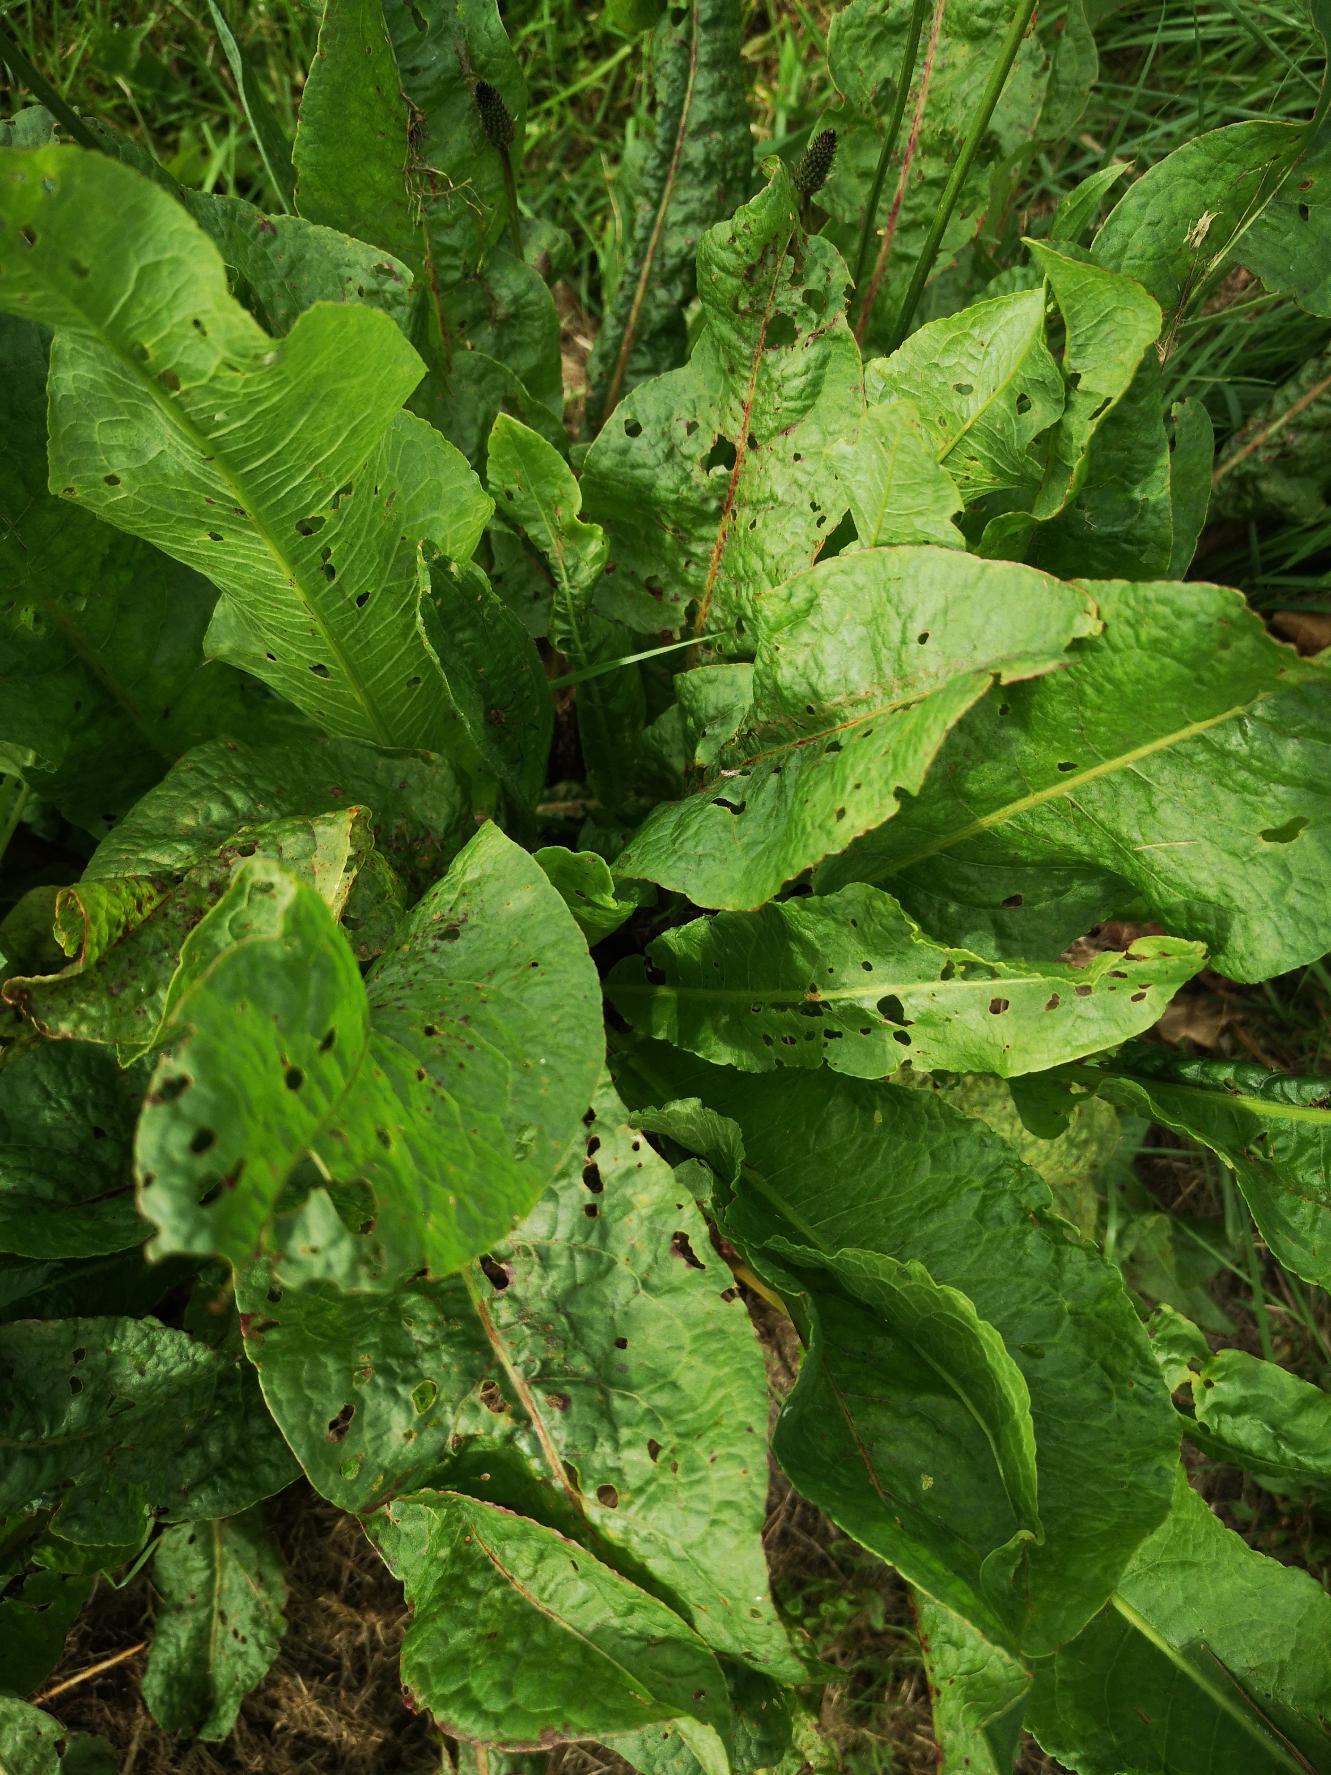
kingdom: Plantae
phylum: Tracheophyta
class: Magnoliopsida
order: Caryophyllales
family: Polygonaceae
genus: Rumex
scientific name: Rumex obtusifolius
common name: Butbladet skræppe
